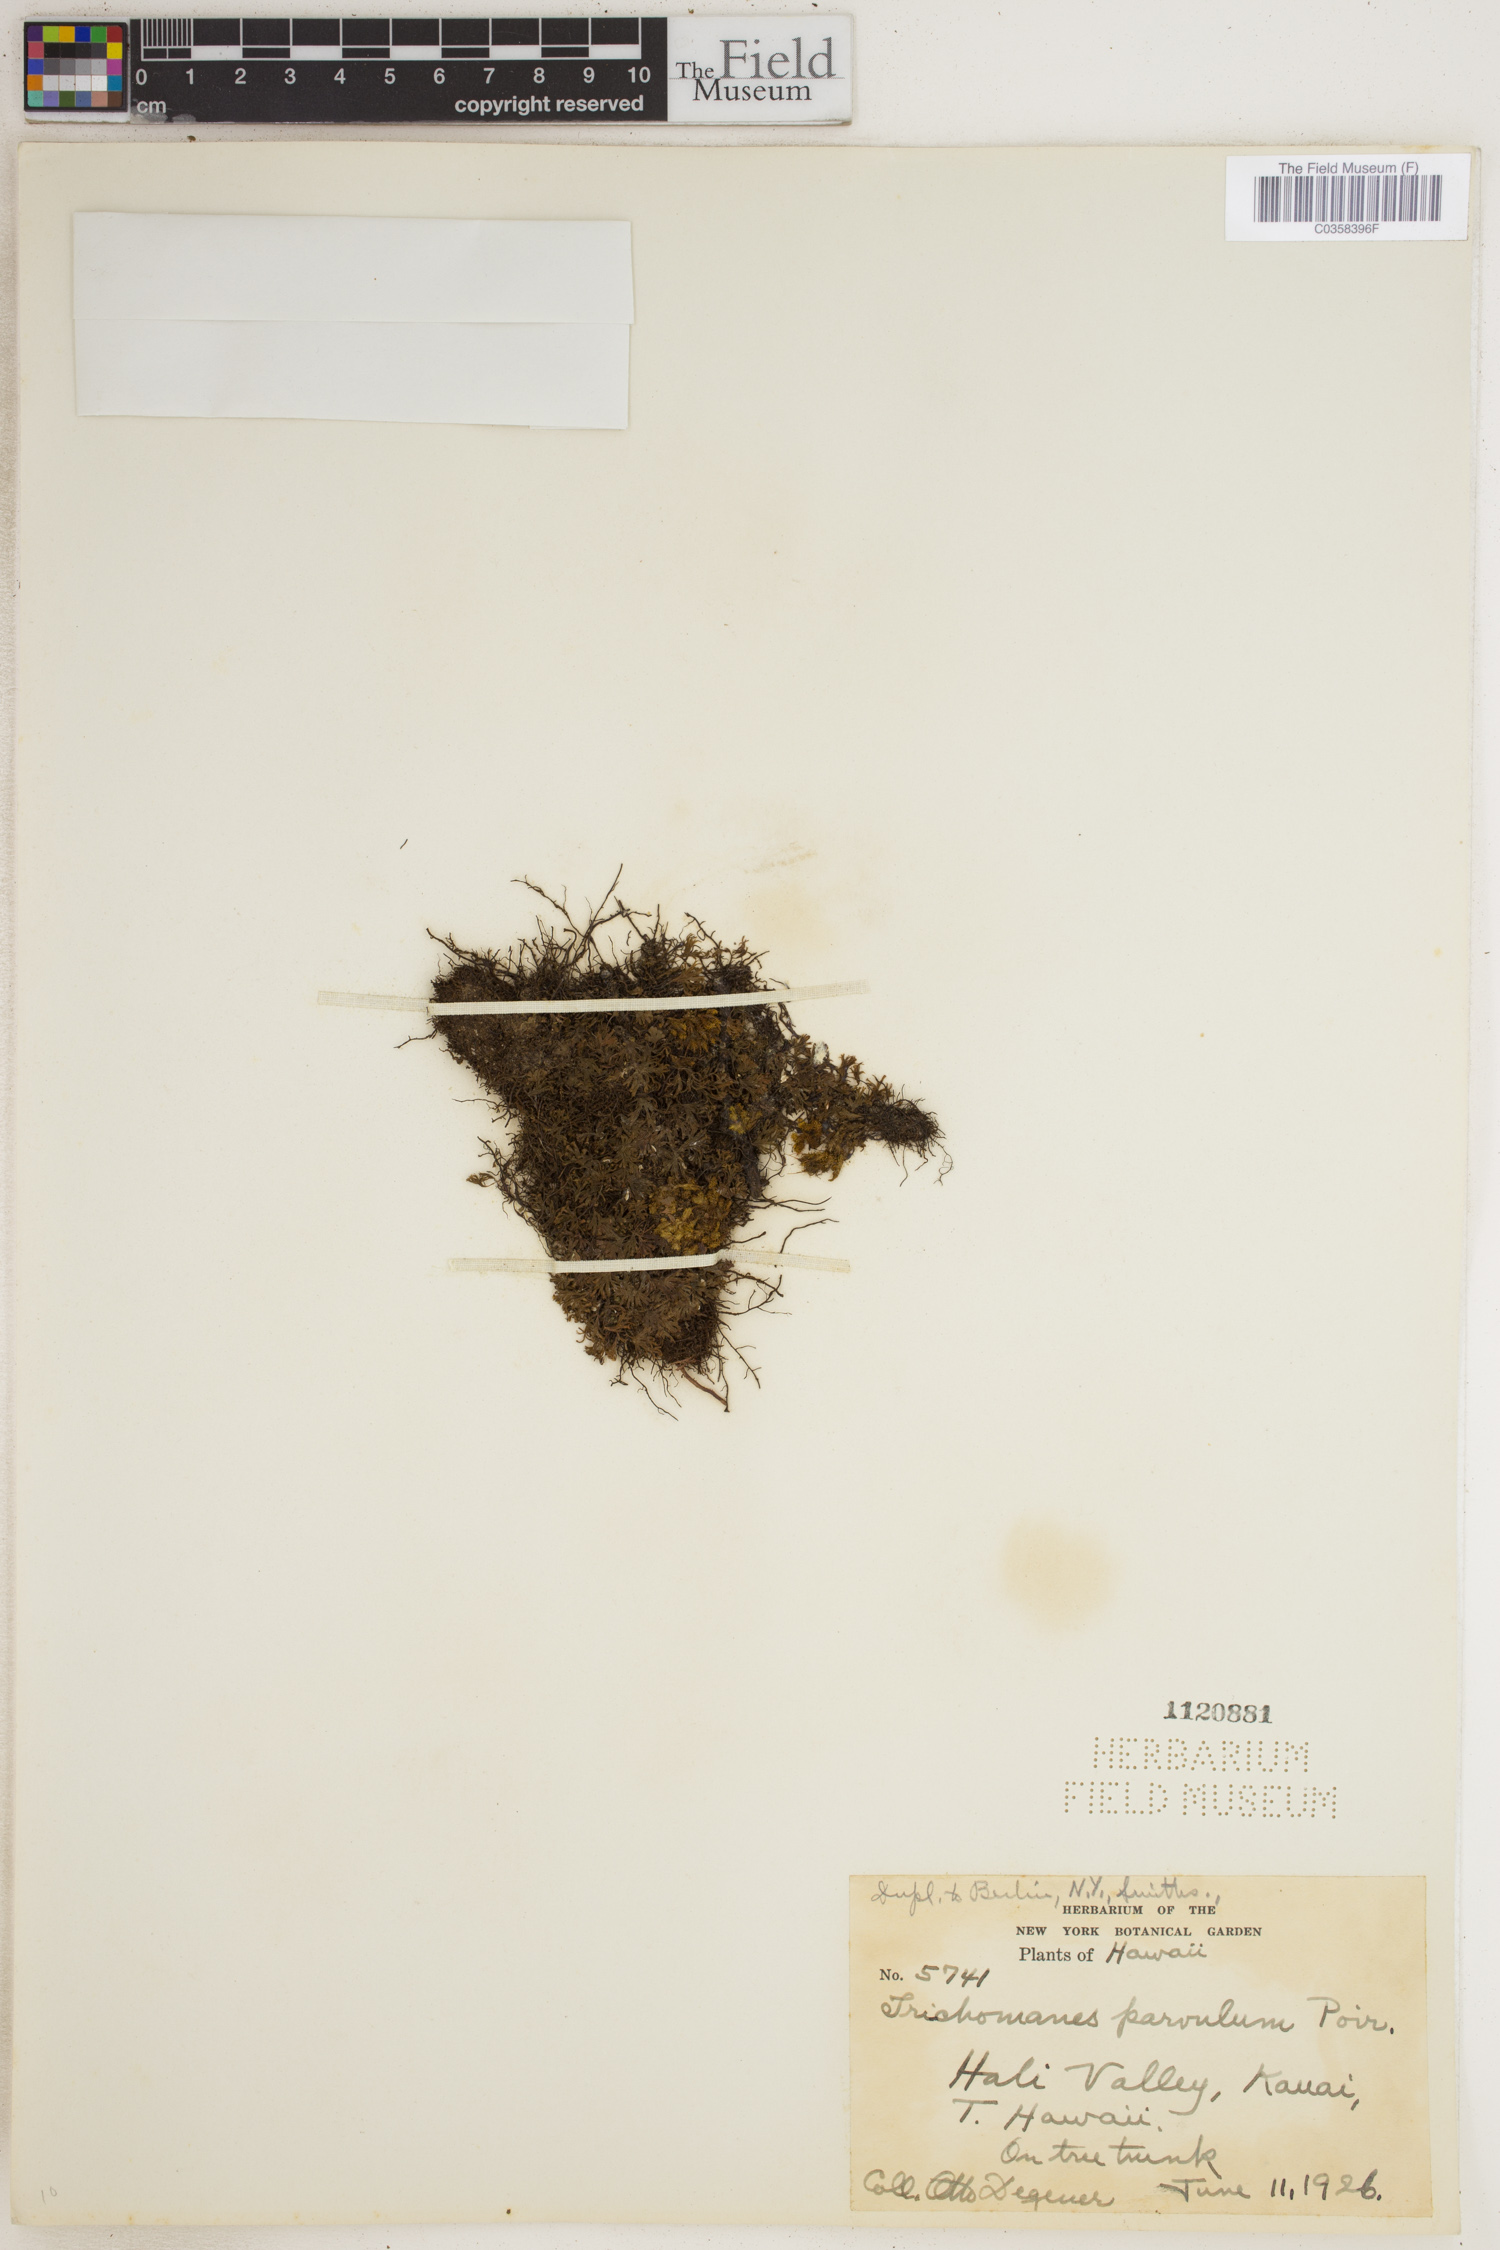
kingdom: Plantae
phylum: Tracheophyta
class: Polypodiopsida
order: Hymenophyllales
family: Hymenophyllaceae
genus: Crepidomanes
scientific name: Crepidomanes parvulum
